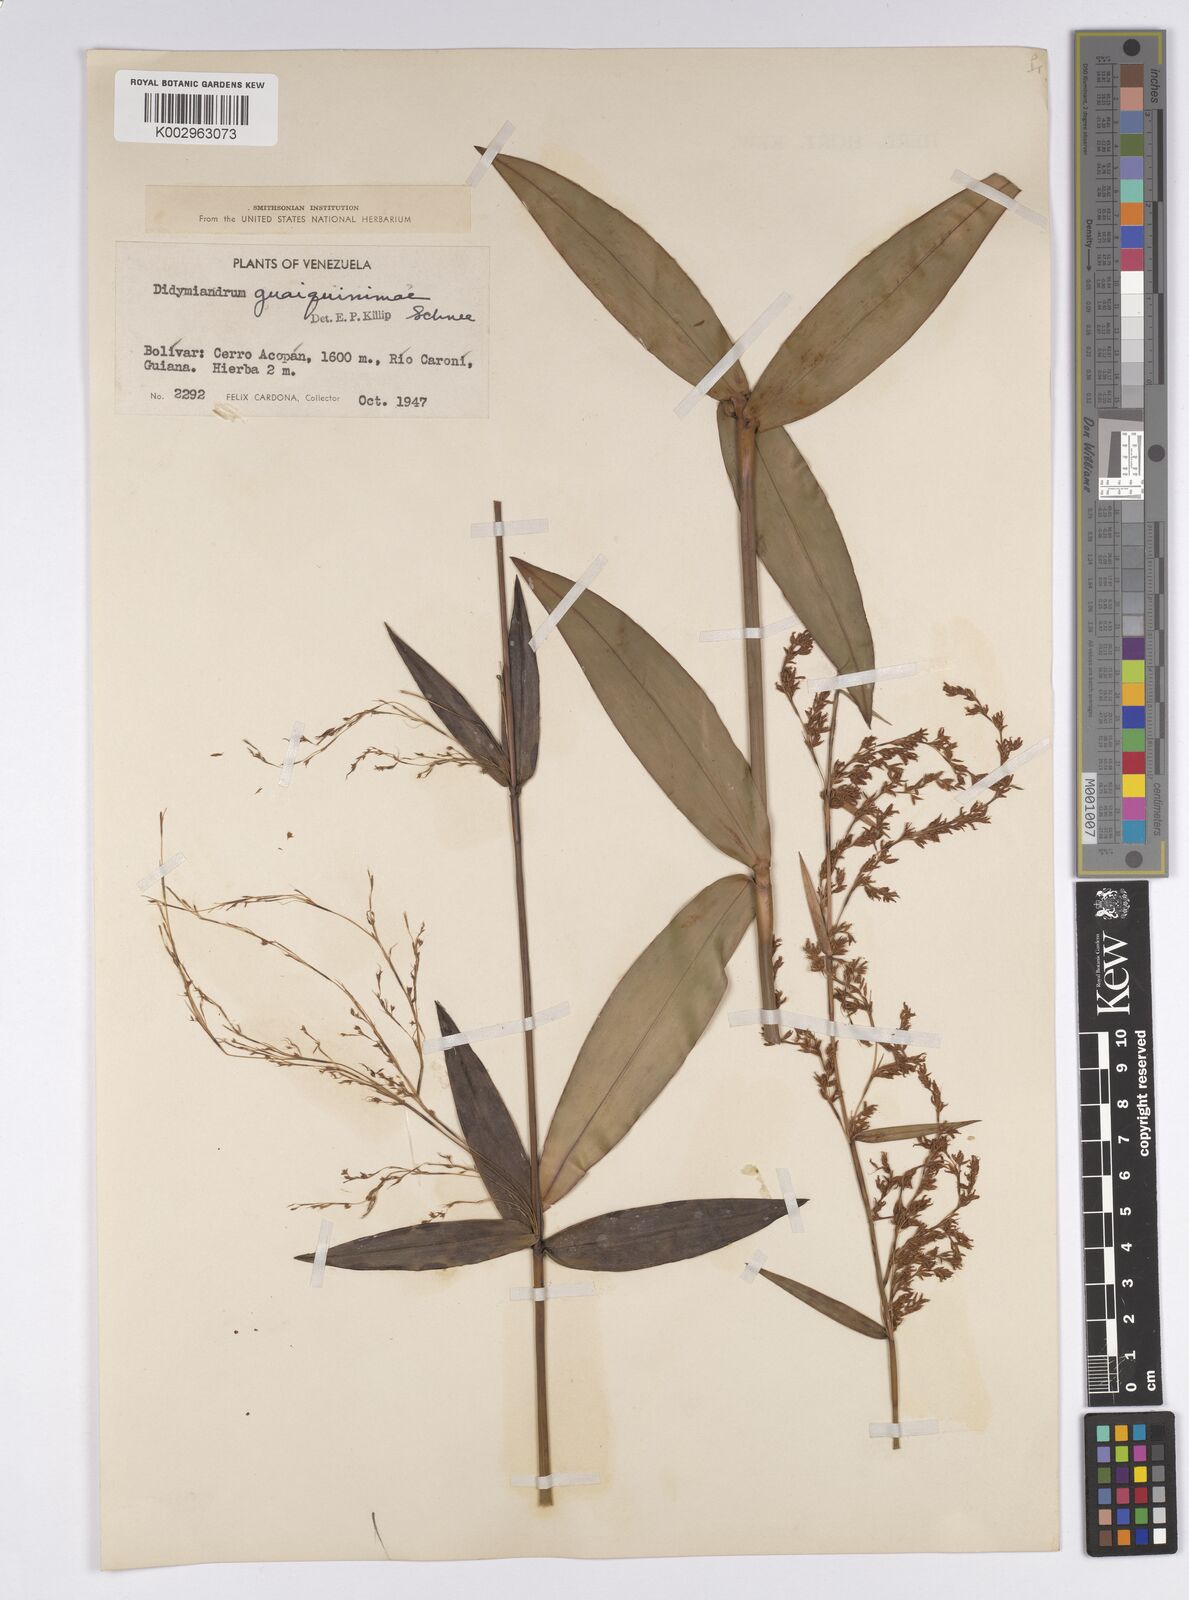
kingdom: Plantae
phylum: Tracheophyta
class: Liliopsida
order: Poales
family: Cyperaceae
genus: Didymiandrum
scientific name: Didymiandrum stellatum
